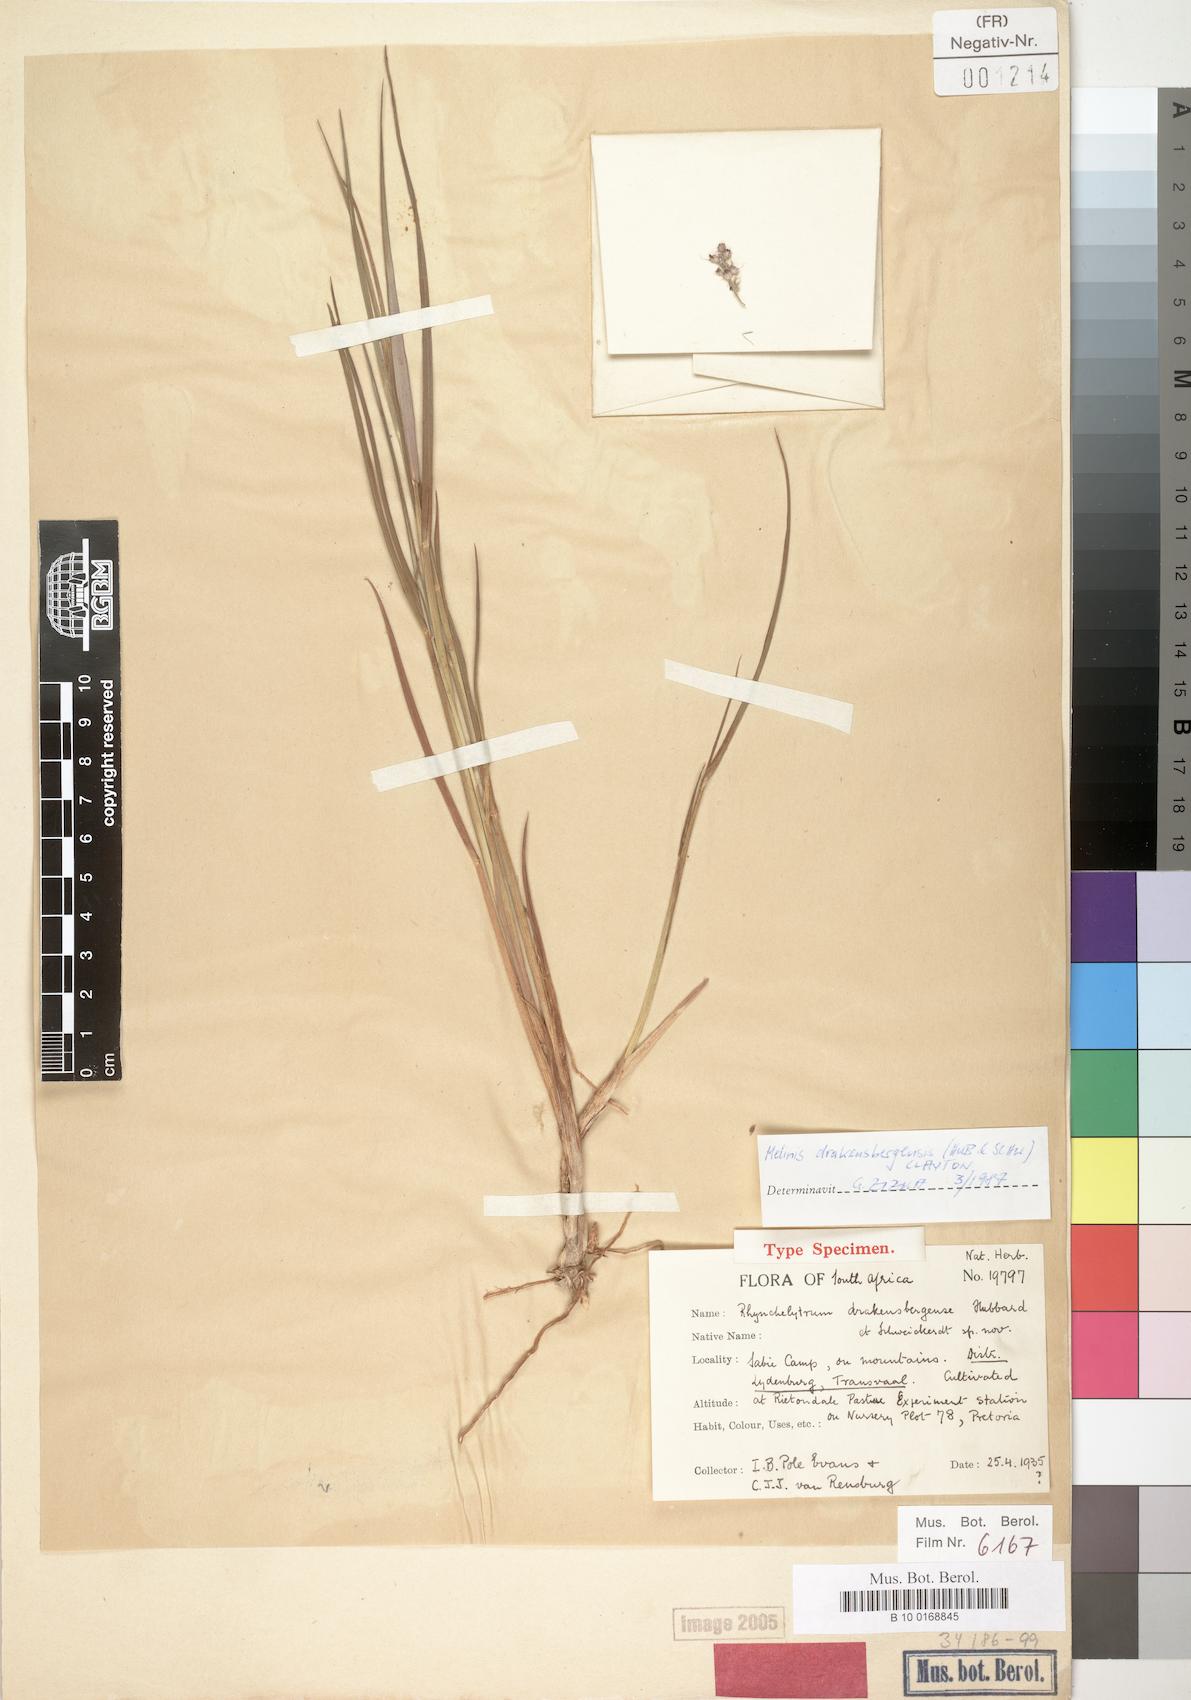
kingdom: Plantae
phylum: Tracheophyta
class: Liliopsida
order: Poales
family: Poaceae
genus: Melinis
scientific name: Melinis drakensbergensis
